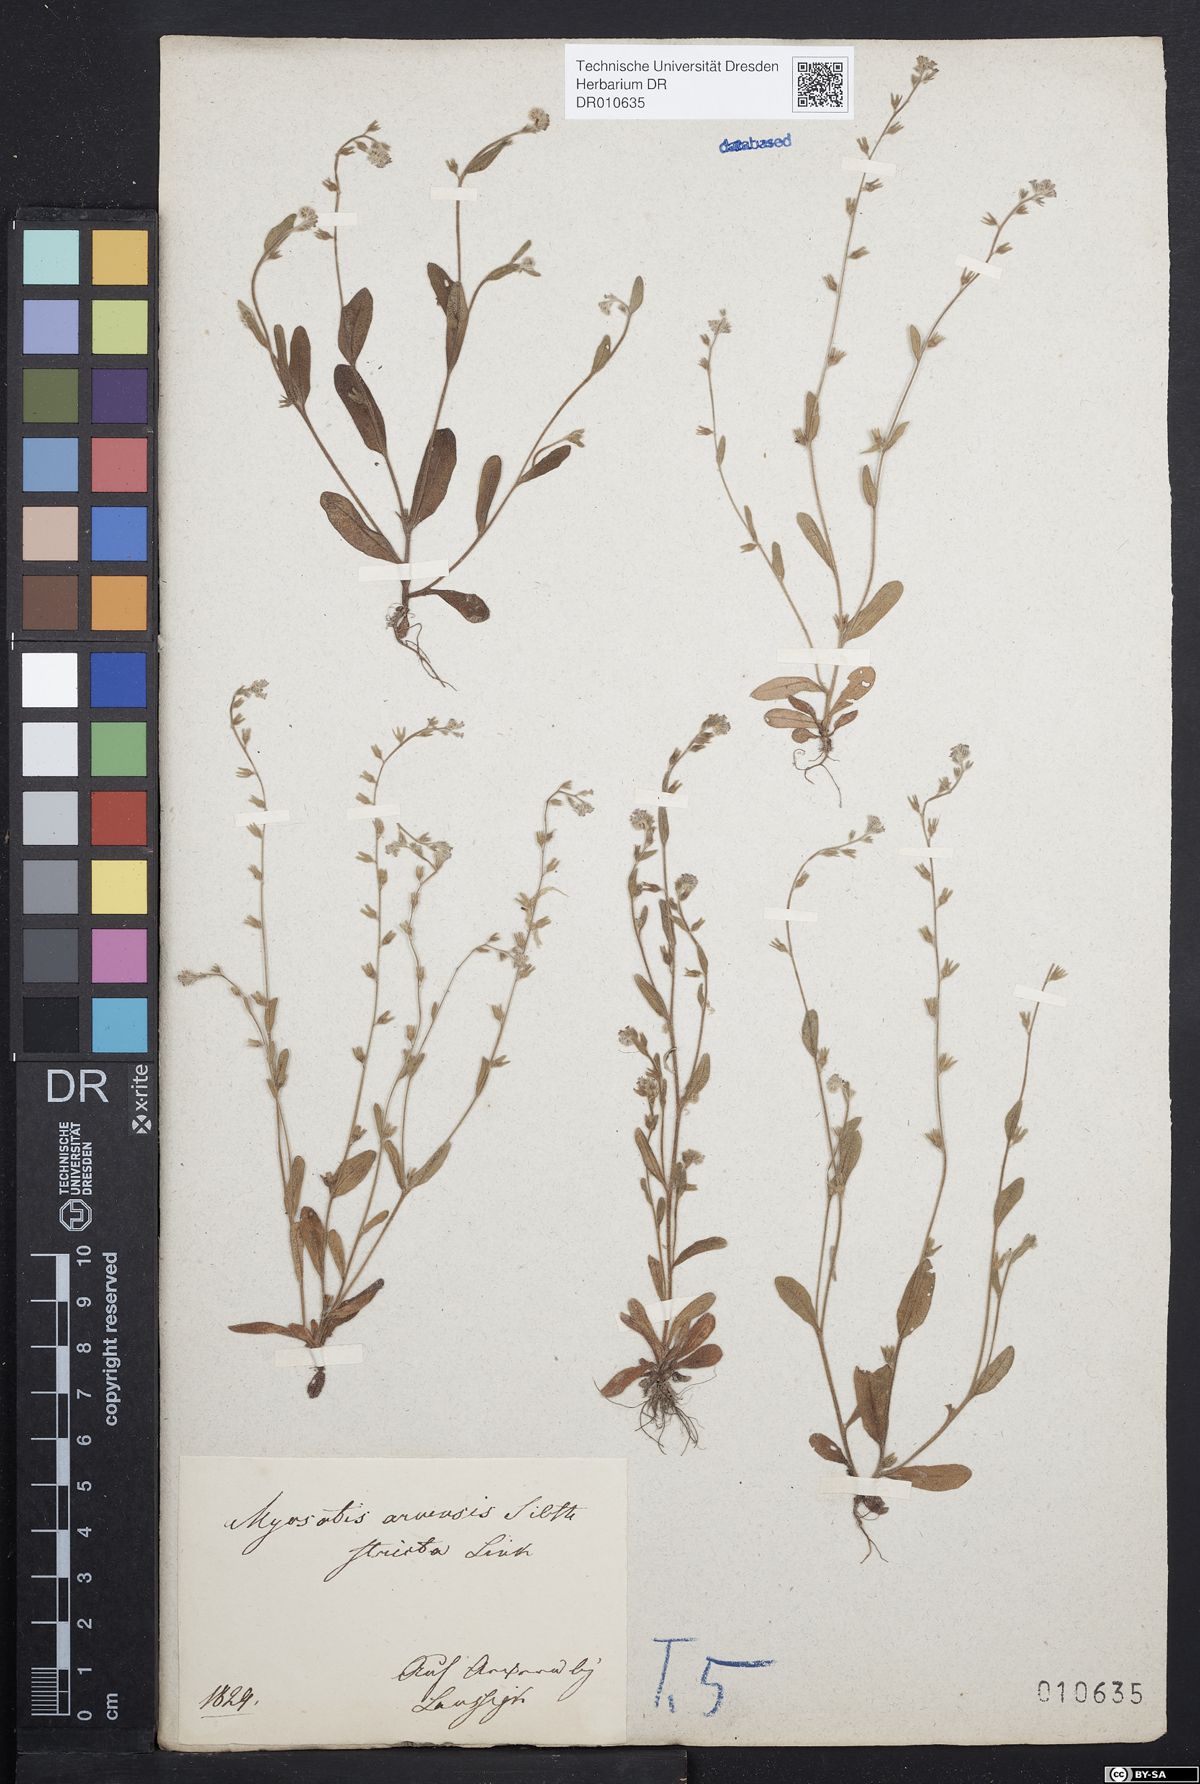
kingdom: Plantae
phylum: Tracheophyta
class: Magnoliopsida
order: Boraginales
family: Boraginaceae
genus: Myosotis
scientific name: Myosotis stricta
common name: Strict forget-me-not
